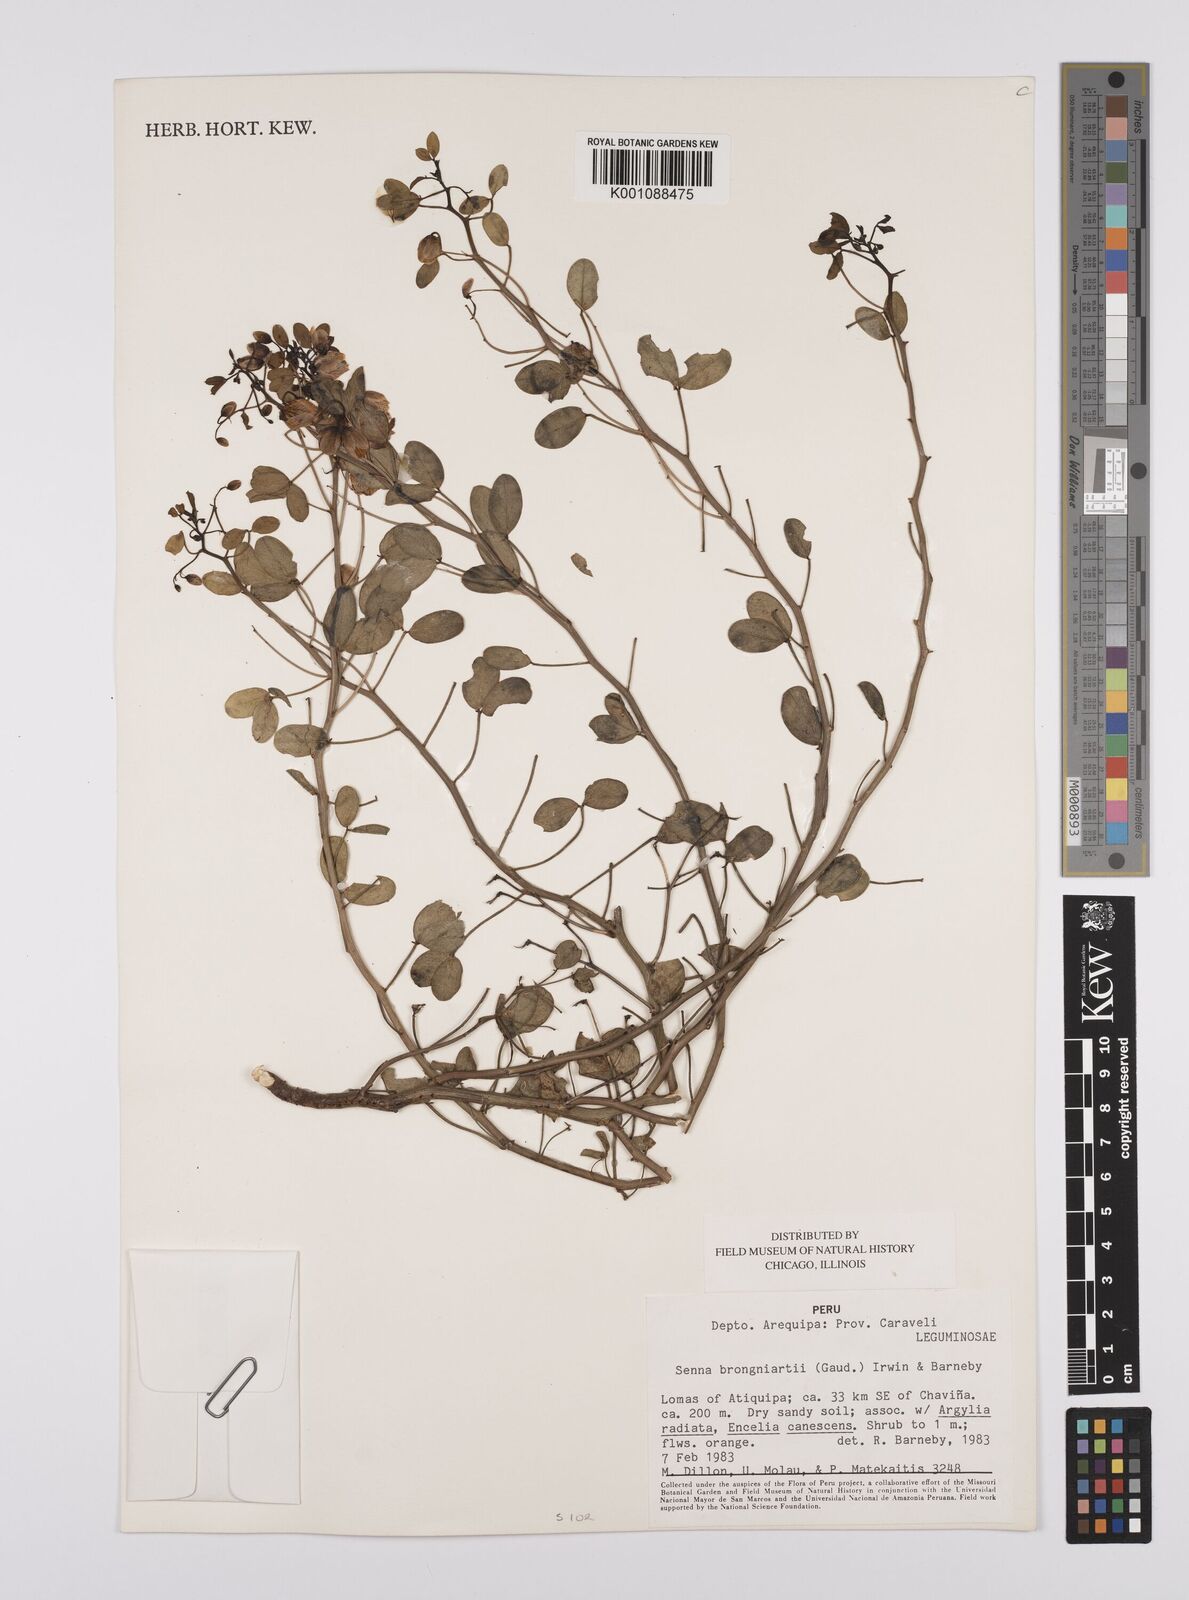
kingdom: Plantae
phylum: Tracheophyta
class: Magnoliopsida
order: Fabales
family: Fabaceae
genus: Senna
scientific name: Senna brongniartii
